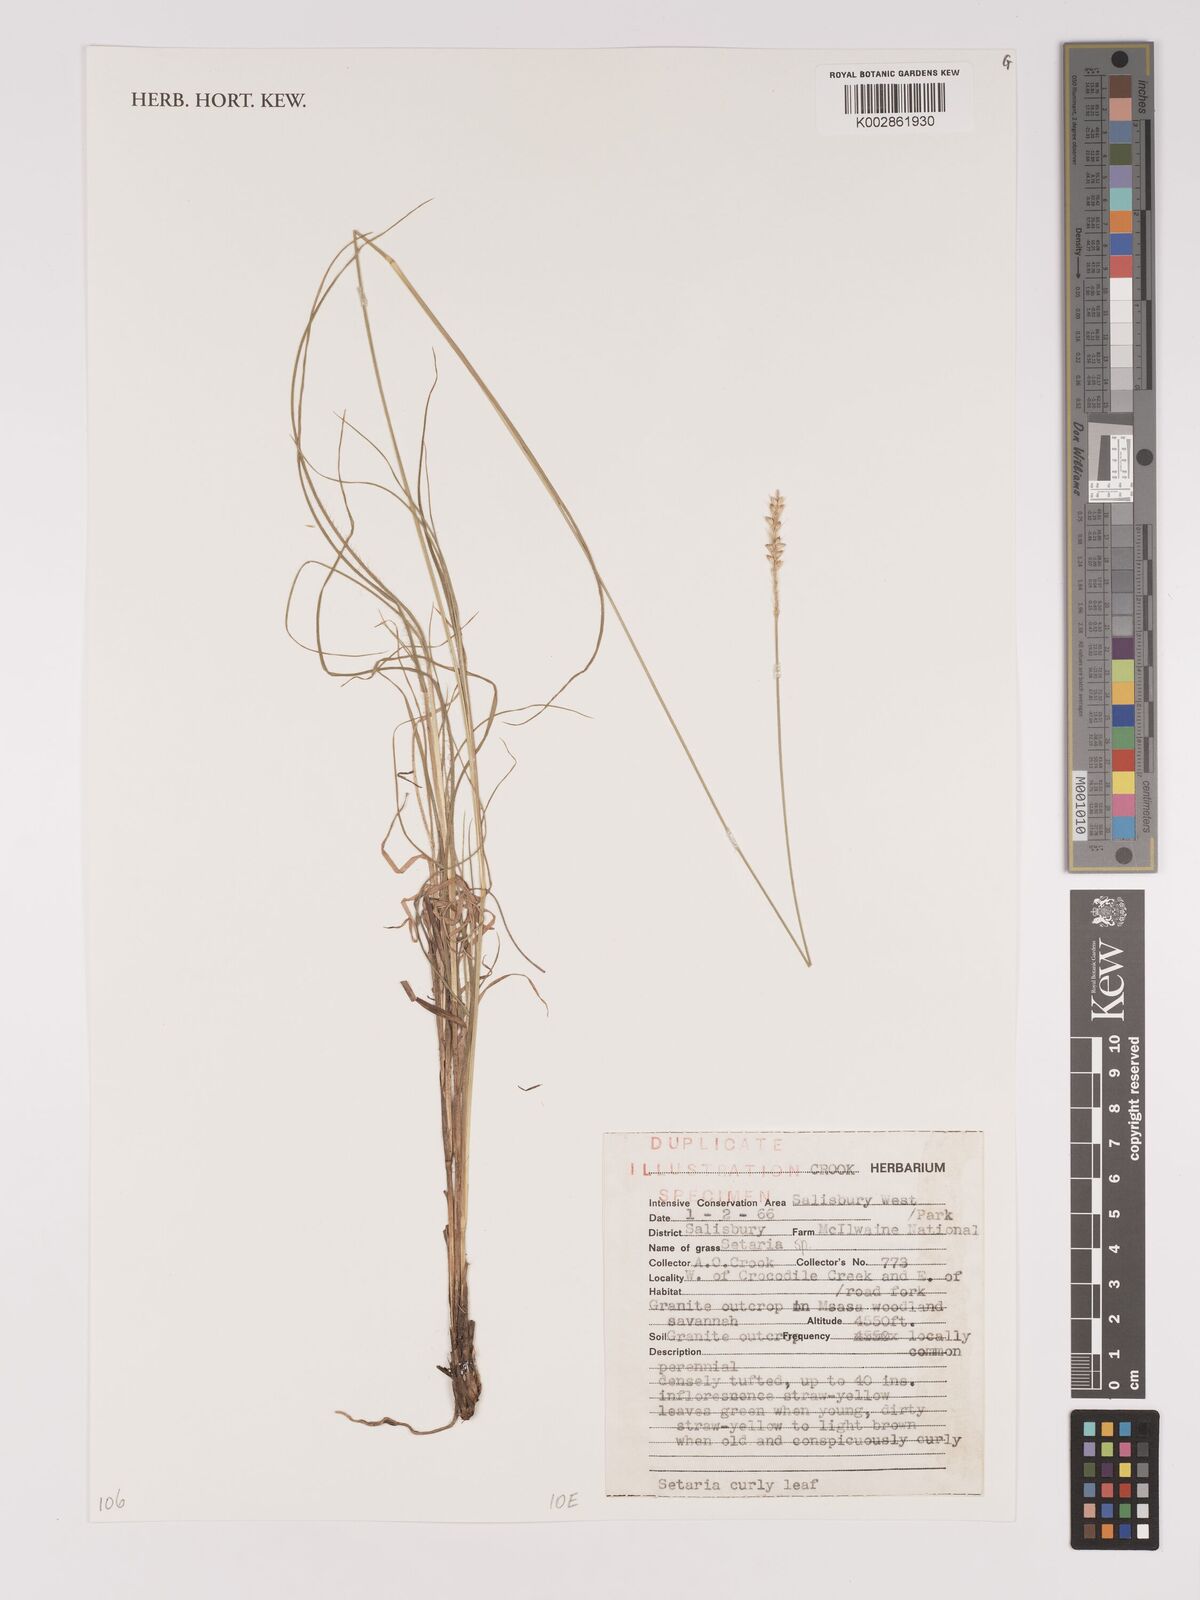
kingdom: Plantae
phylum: Tracheophyta
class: Liliopsida
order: Poales
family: Poaceae
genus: Setaria
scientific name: Setaria
